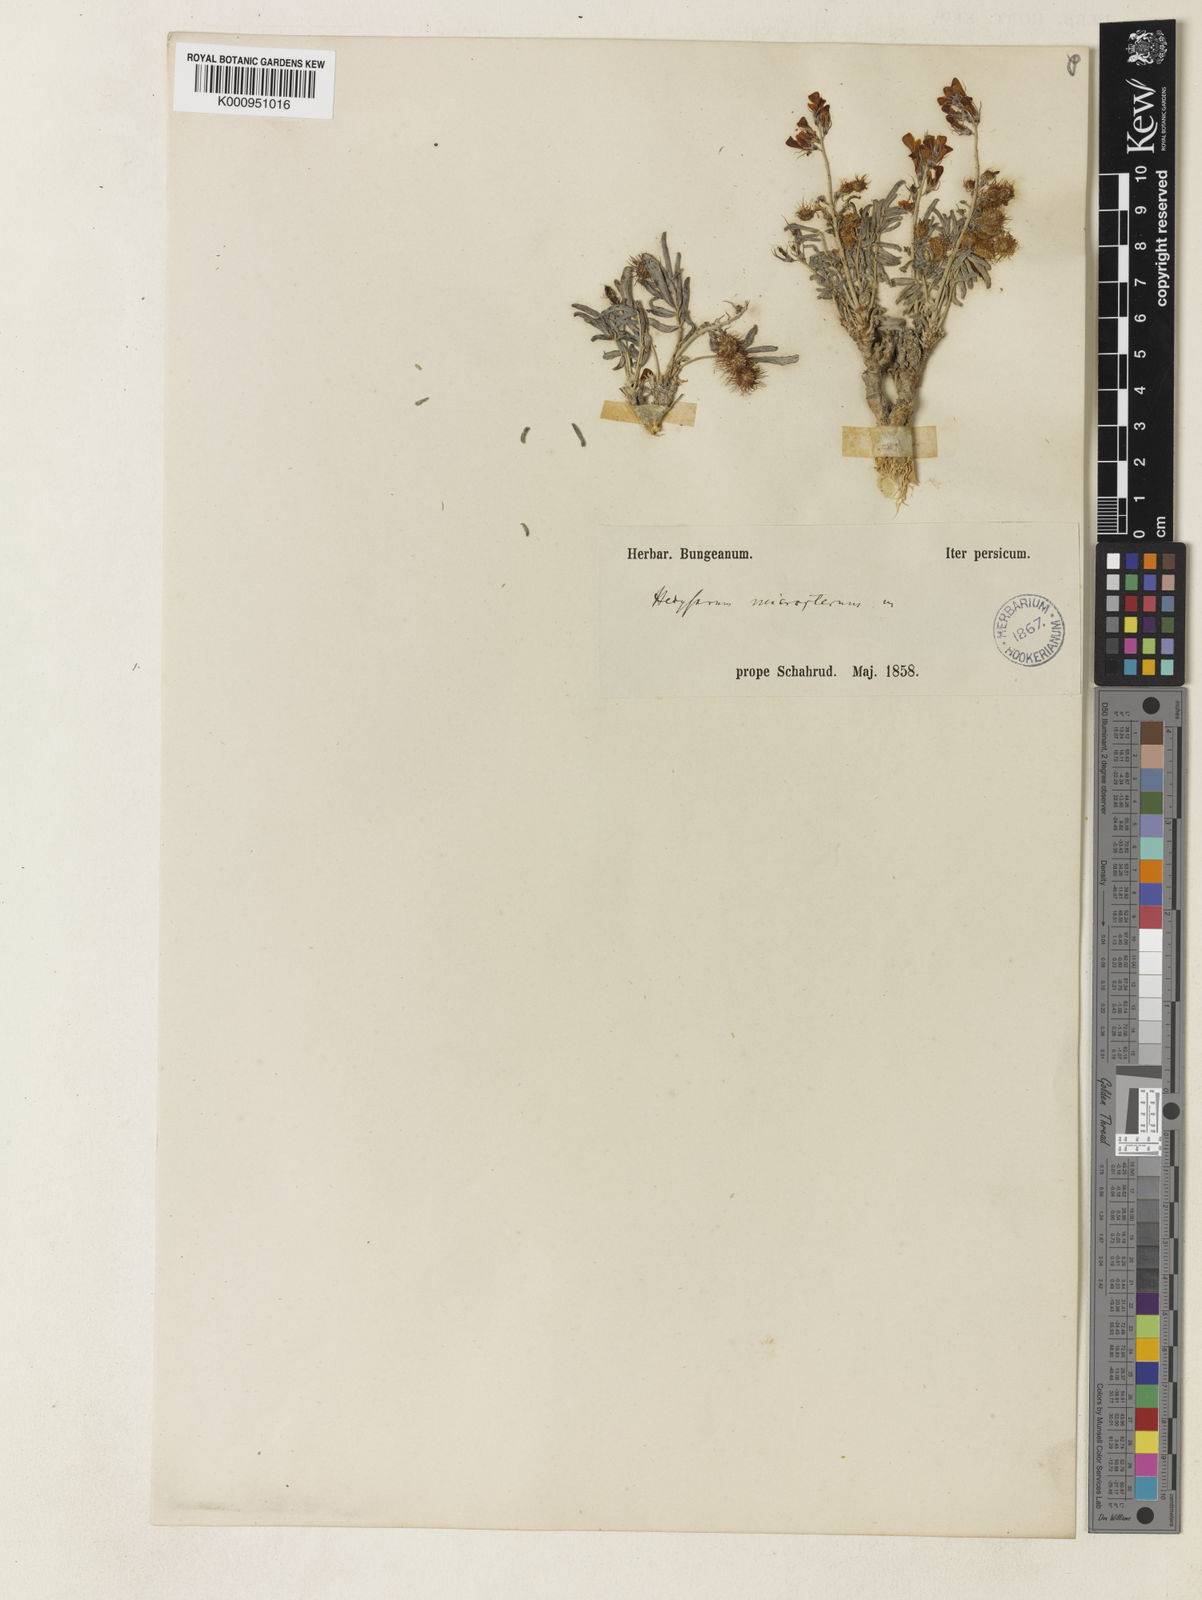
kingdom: Plantae
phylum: Tracheophyta
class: Magnoliopsida
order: Fabales
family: Fabaceae
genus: Hedysarum
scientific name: Hedysarum micropterum
